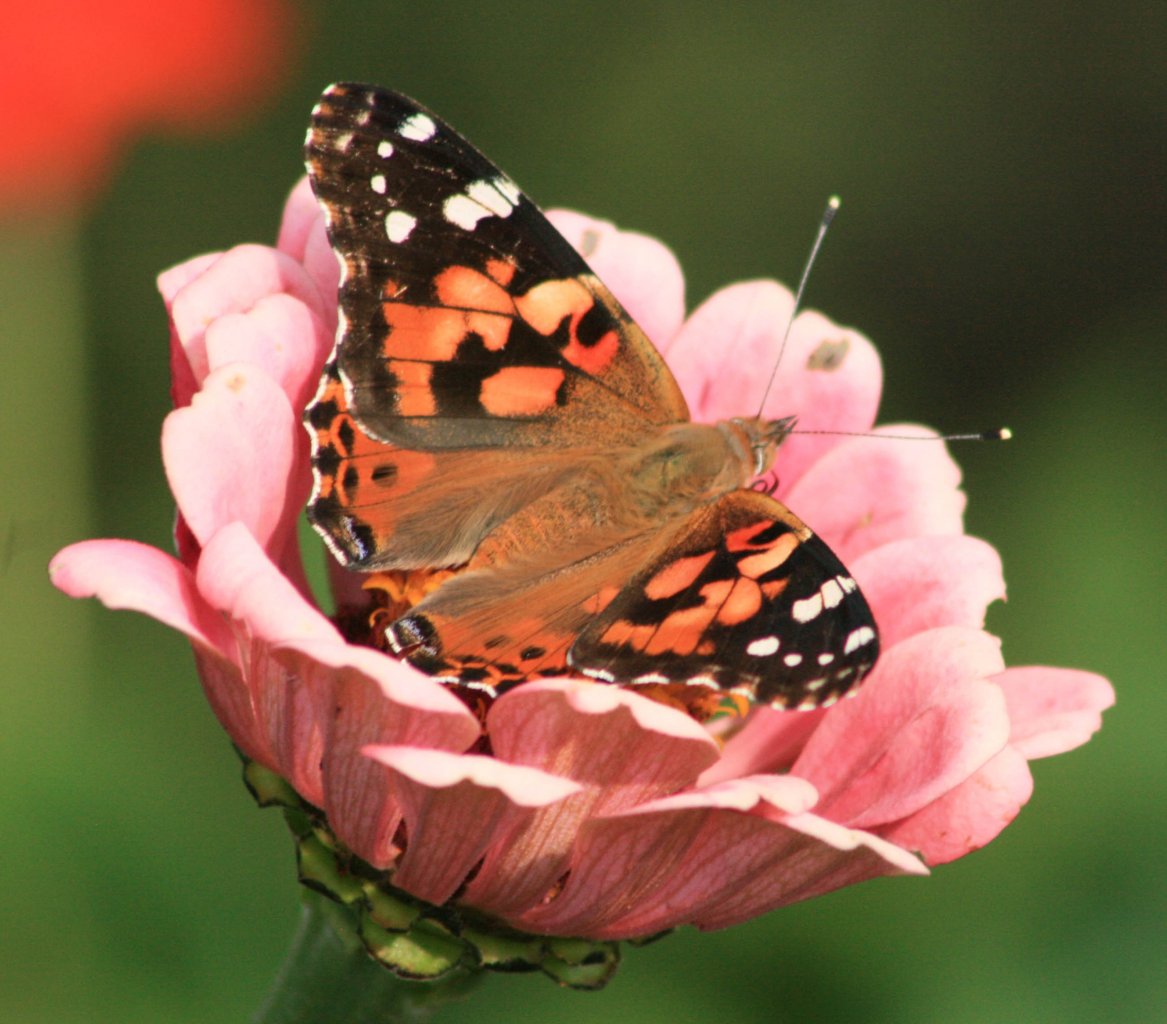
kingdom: Animalia
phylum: Arthropoda
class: Insecta
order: Lepidoptera
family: Nymphalidae
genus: Vanessa
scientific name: Vanessa cardui
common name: Painted Lady
